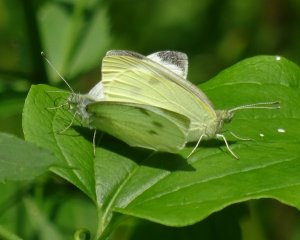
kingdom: Animalia
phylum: Arthropoda
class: Insecta
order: Lepidoptera
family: Pieridae
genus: Pieris
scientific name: Pieris rapae
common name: Cabbage White
